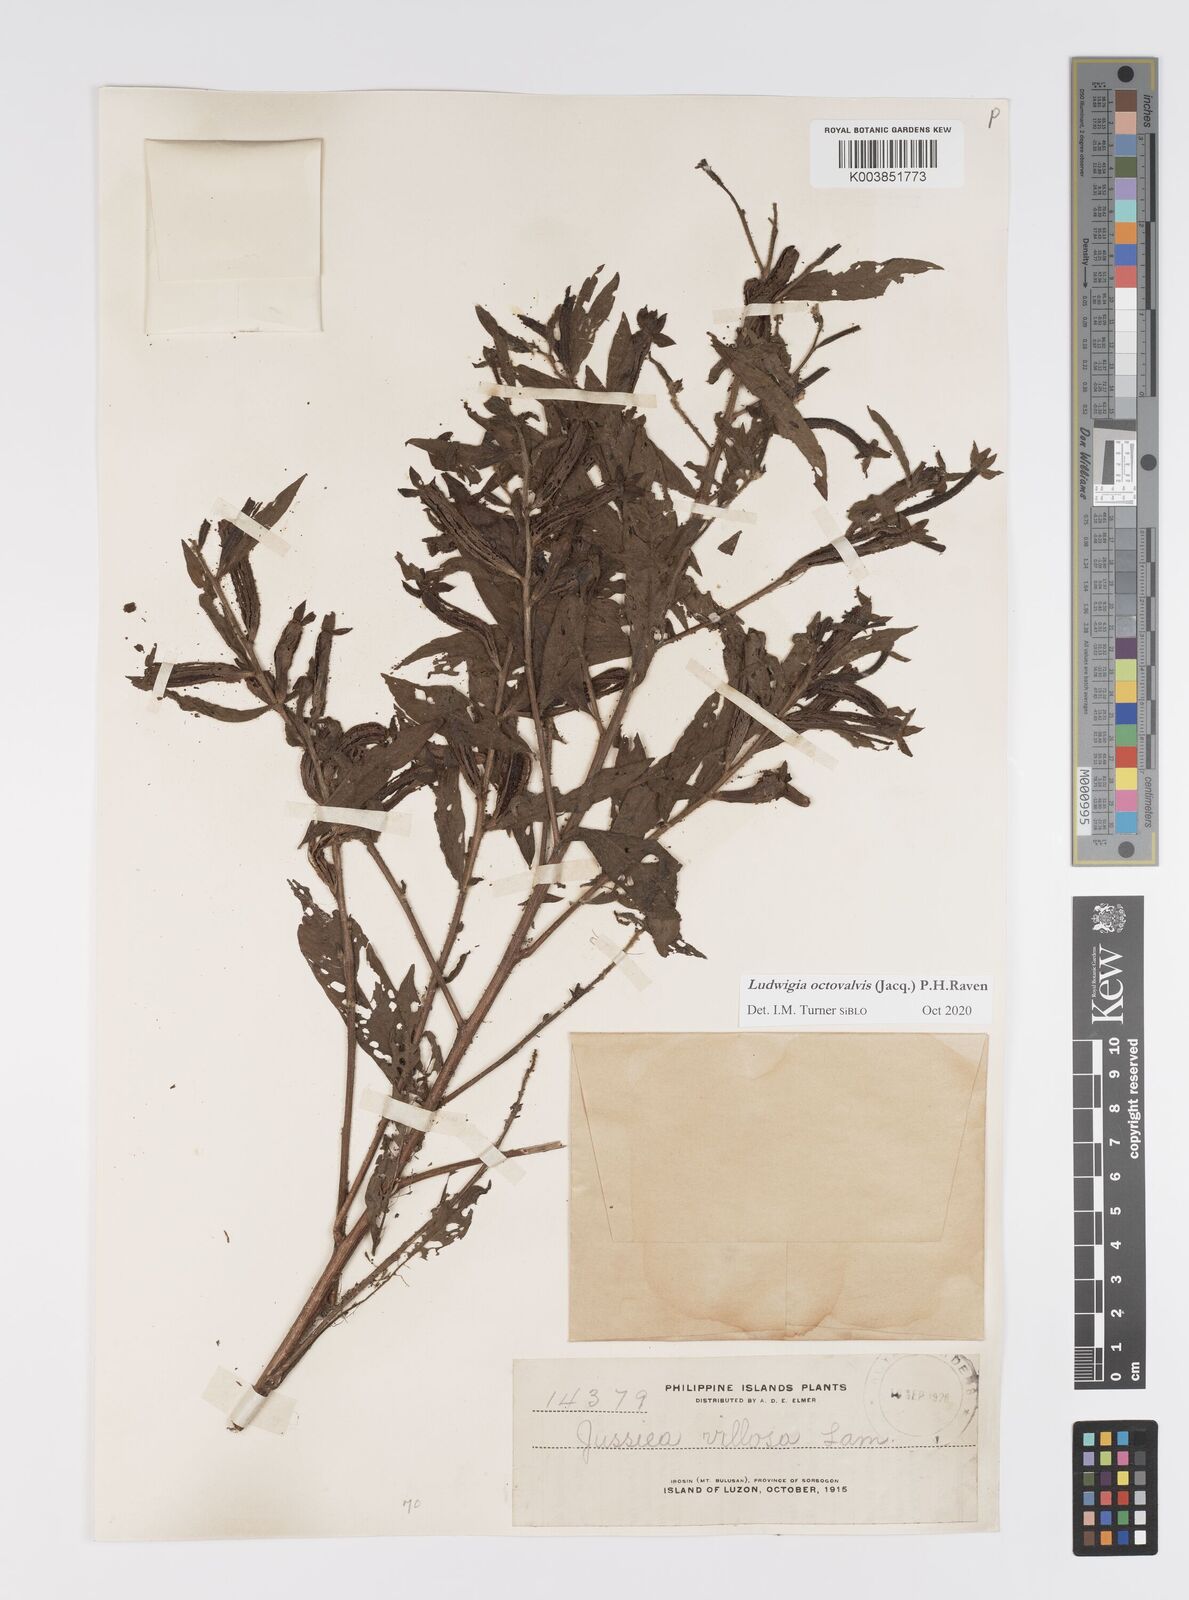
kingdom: Plantae
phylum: Tracheophyta
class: Magnoliopsida
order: Myrtales
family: Onagraceae
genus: Ludwigia
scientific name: Ludwigia octovalvis
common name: Water-primrose
